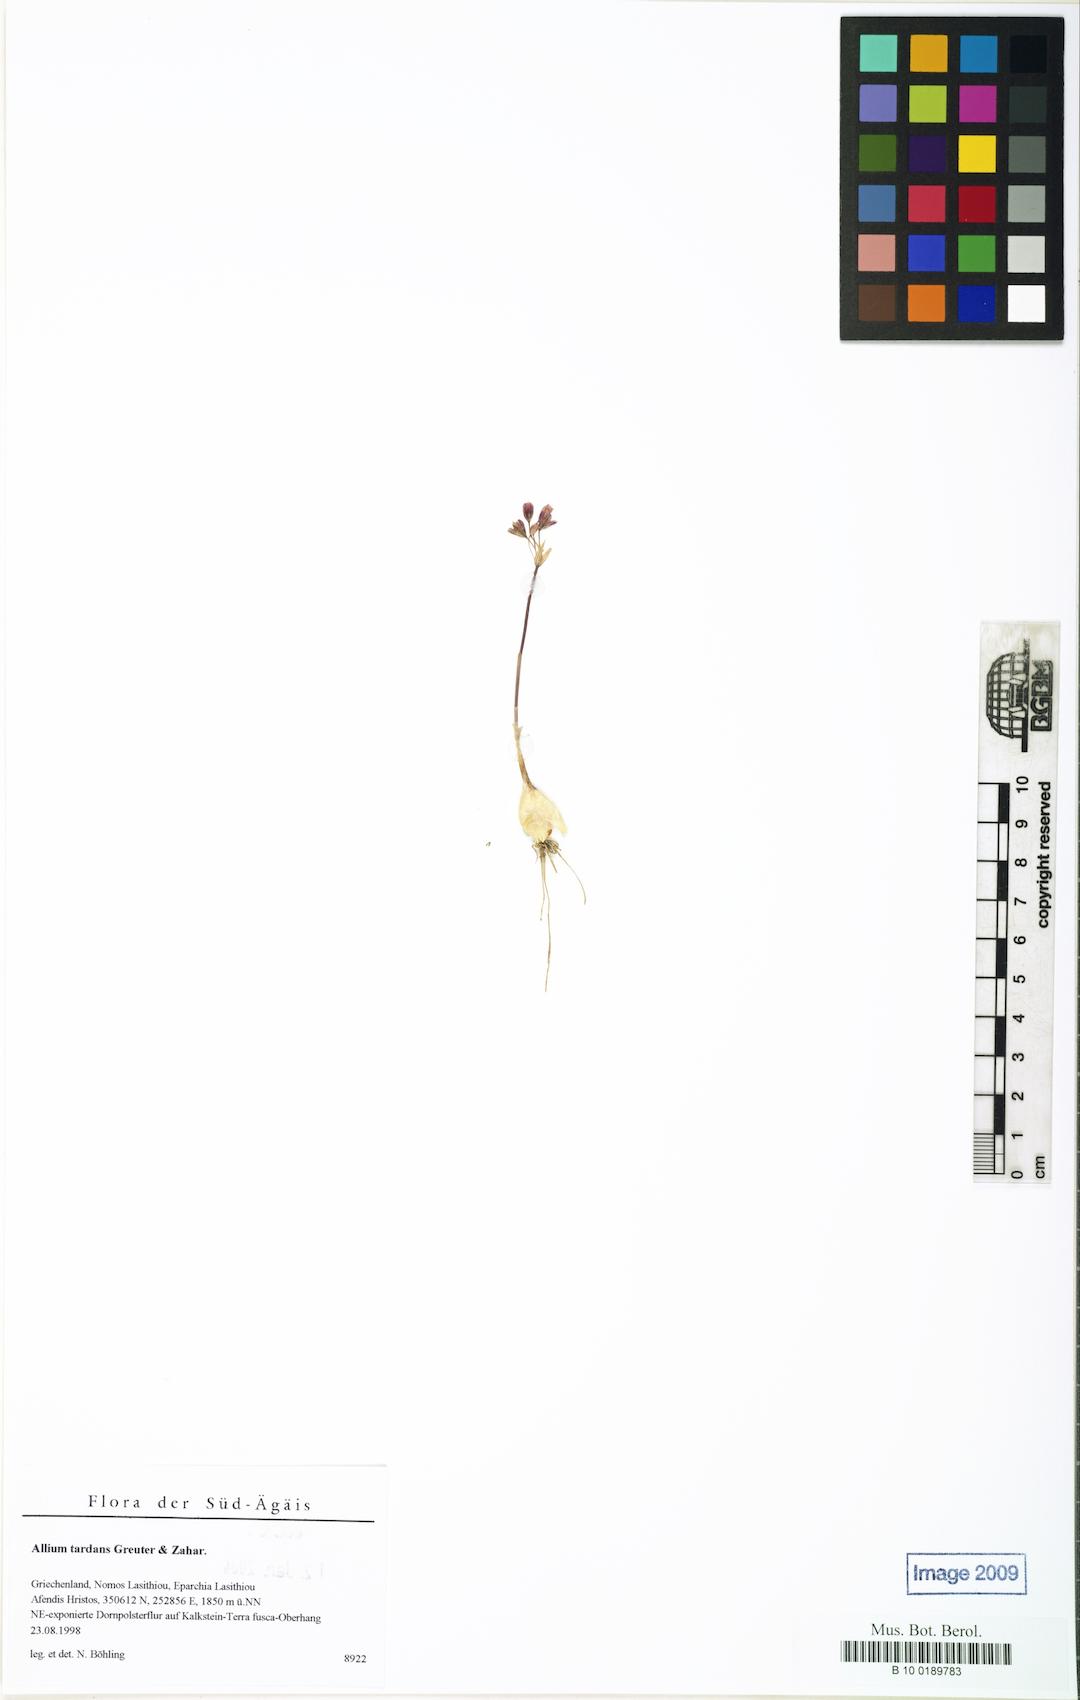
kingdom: Plantae
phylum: Tracheophyta
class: Liliopsida
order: Asparagales
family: Amaryllidaceae
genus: Allium
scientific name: Allium tardans
